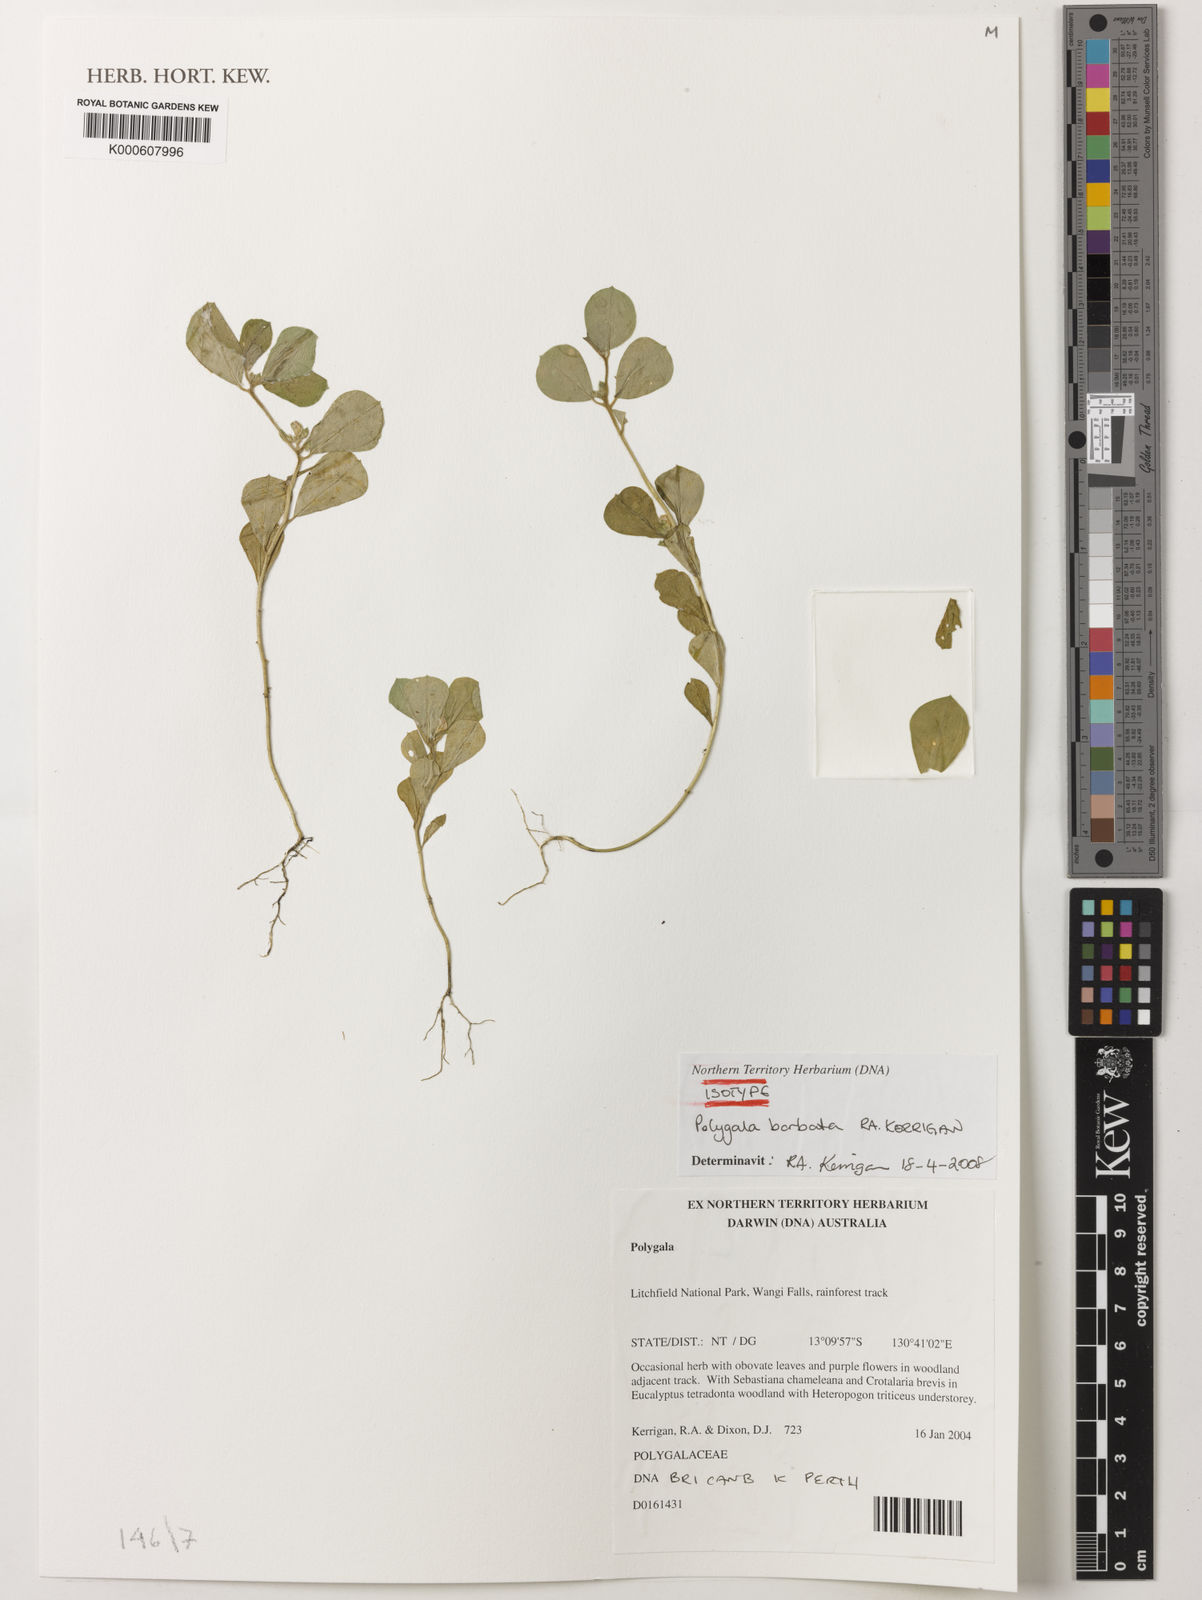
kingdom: Plantae
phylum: Tracheophyta
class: Magnoliopsida
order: Fabales
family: Polygalaceae
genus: Polygala
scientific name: Polygala barbata
